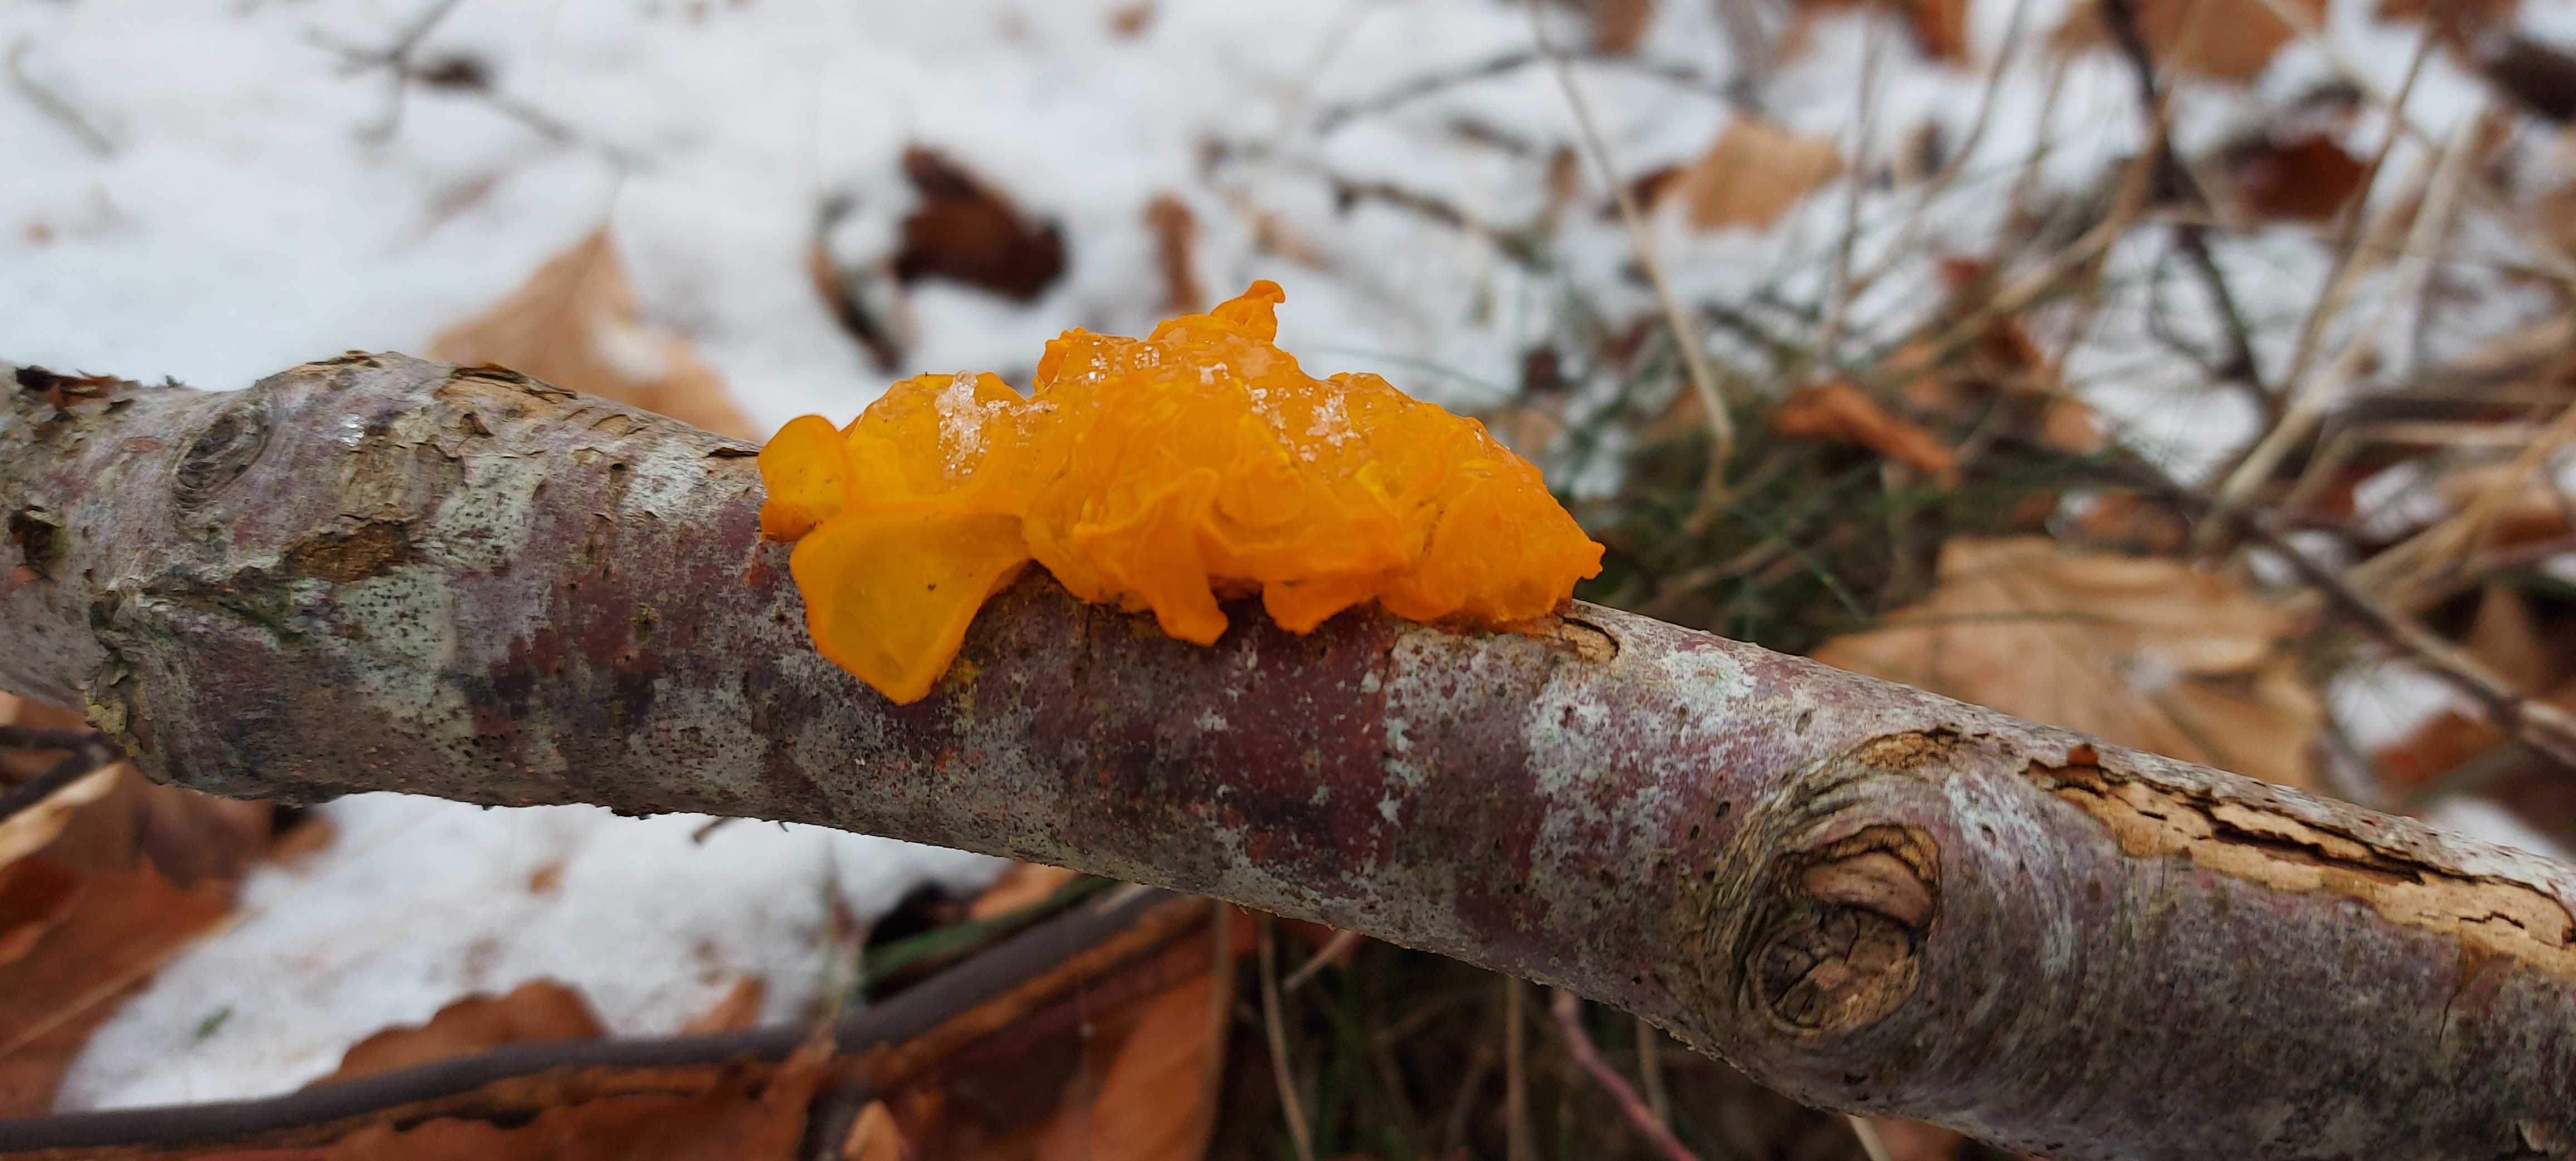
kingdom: Fungi
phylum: Basidiomycota
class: Tremellomycetes
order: Tremellales
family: Tremellaceae
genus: Tremella
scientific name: Tremella mesenterica
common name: gul bævresvamp
